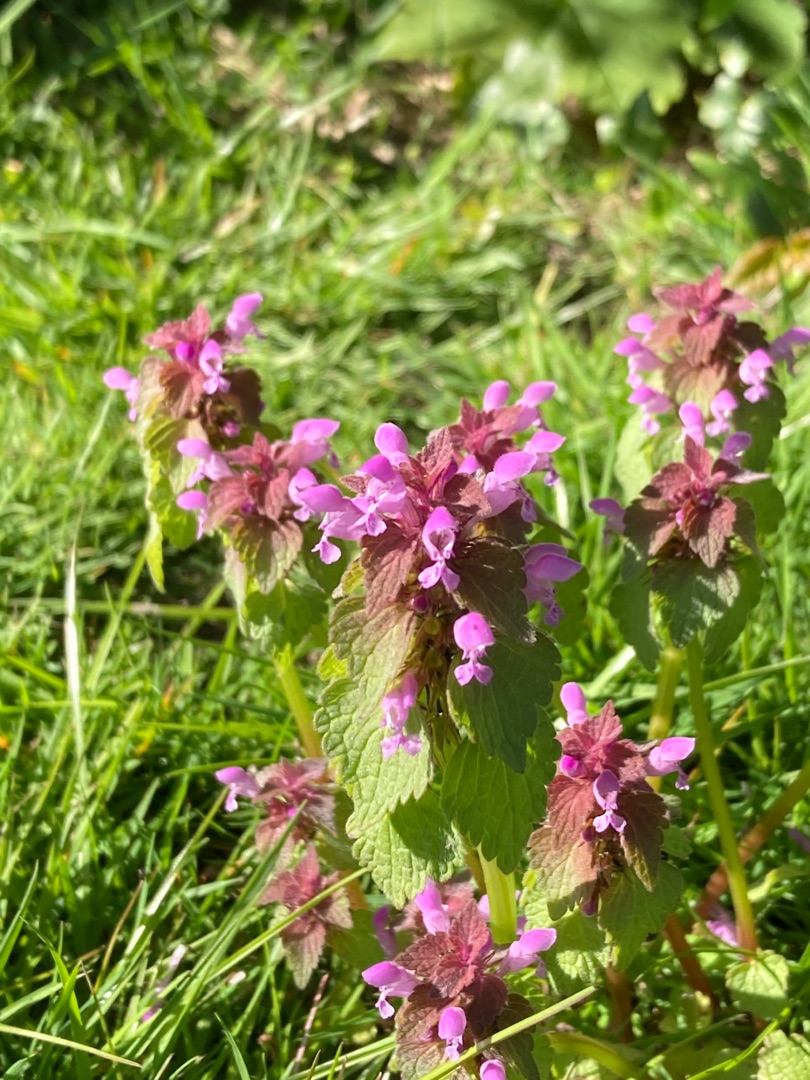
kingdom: Plantae
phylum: Tracheophyta
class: Magnoliopsida
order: Lamiales
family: Lamiaceae
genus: Lamium
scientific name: Lamium purpureum
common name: Rød tvetand
